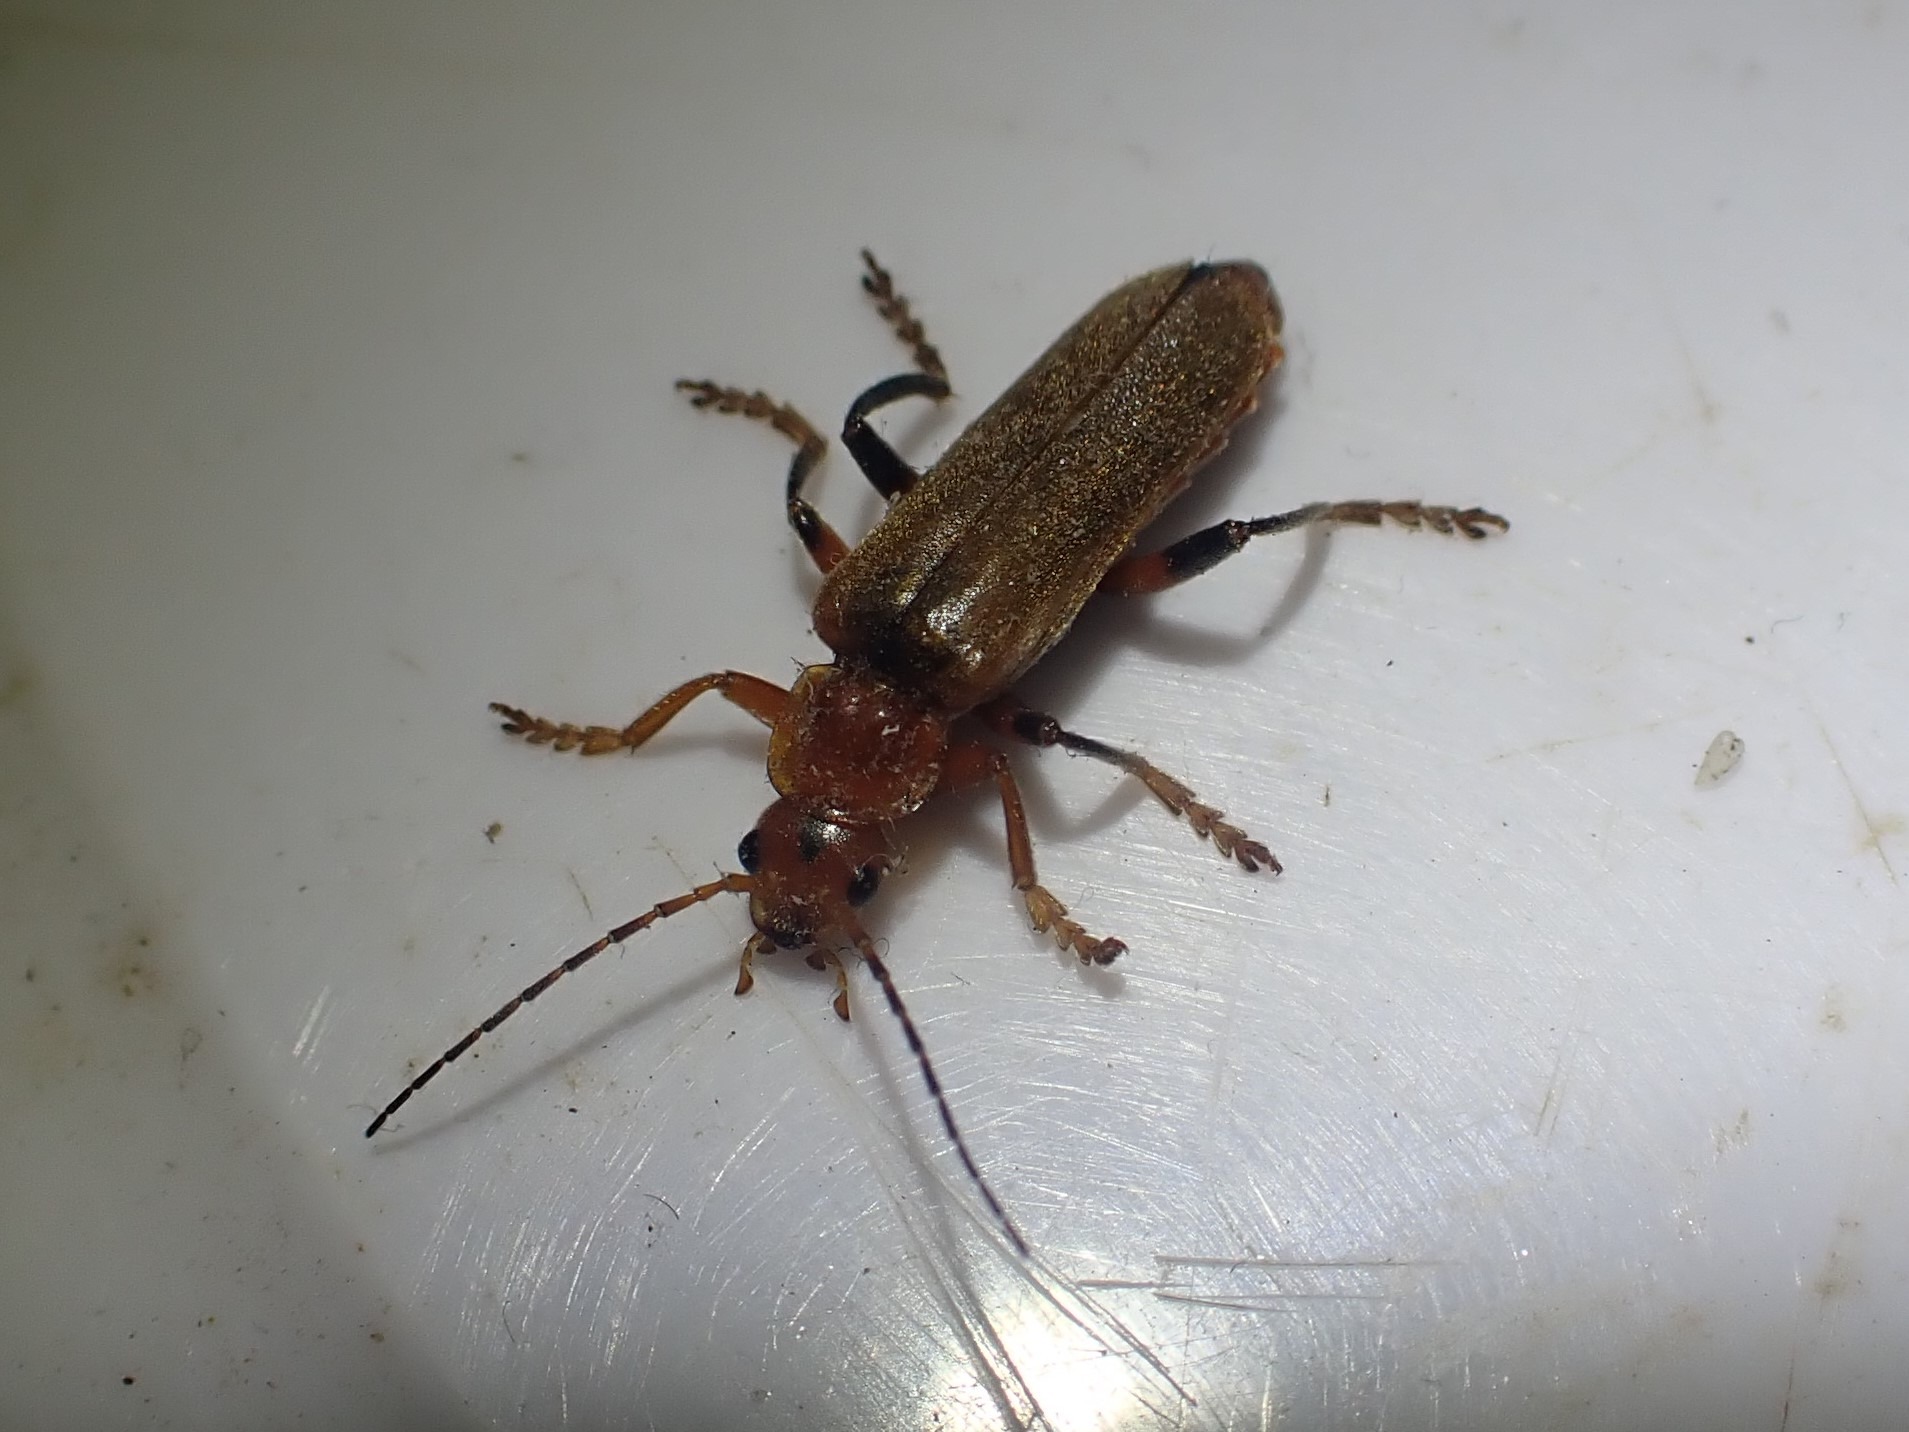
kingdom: Animalia
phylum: Arthropoda
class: Insecta
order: Coleoptera
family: Cantharidae
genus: Cantharis
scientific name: Cantharis livida
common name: Gul blødvinge
